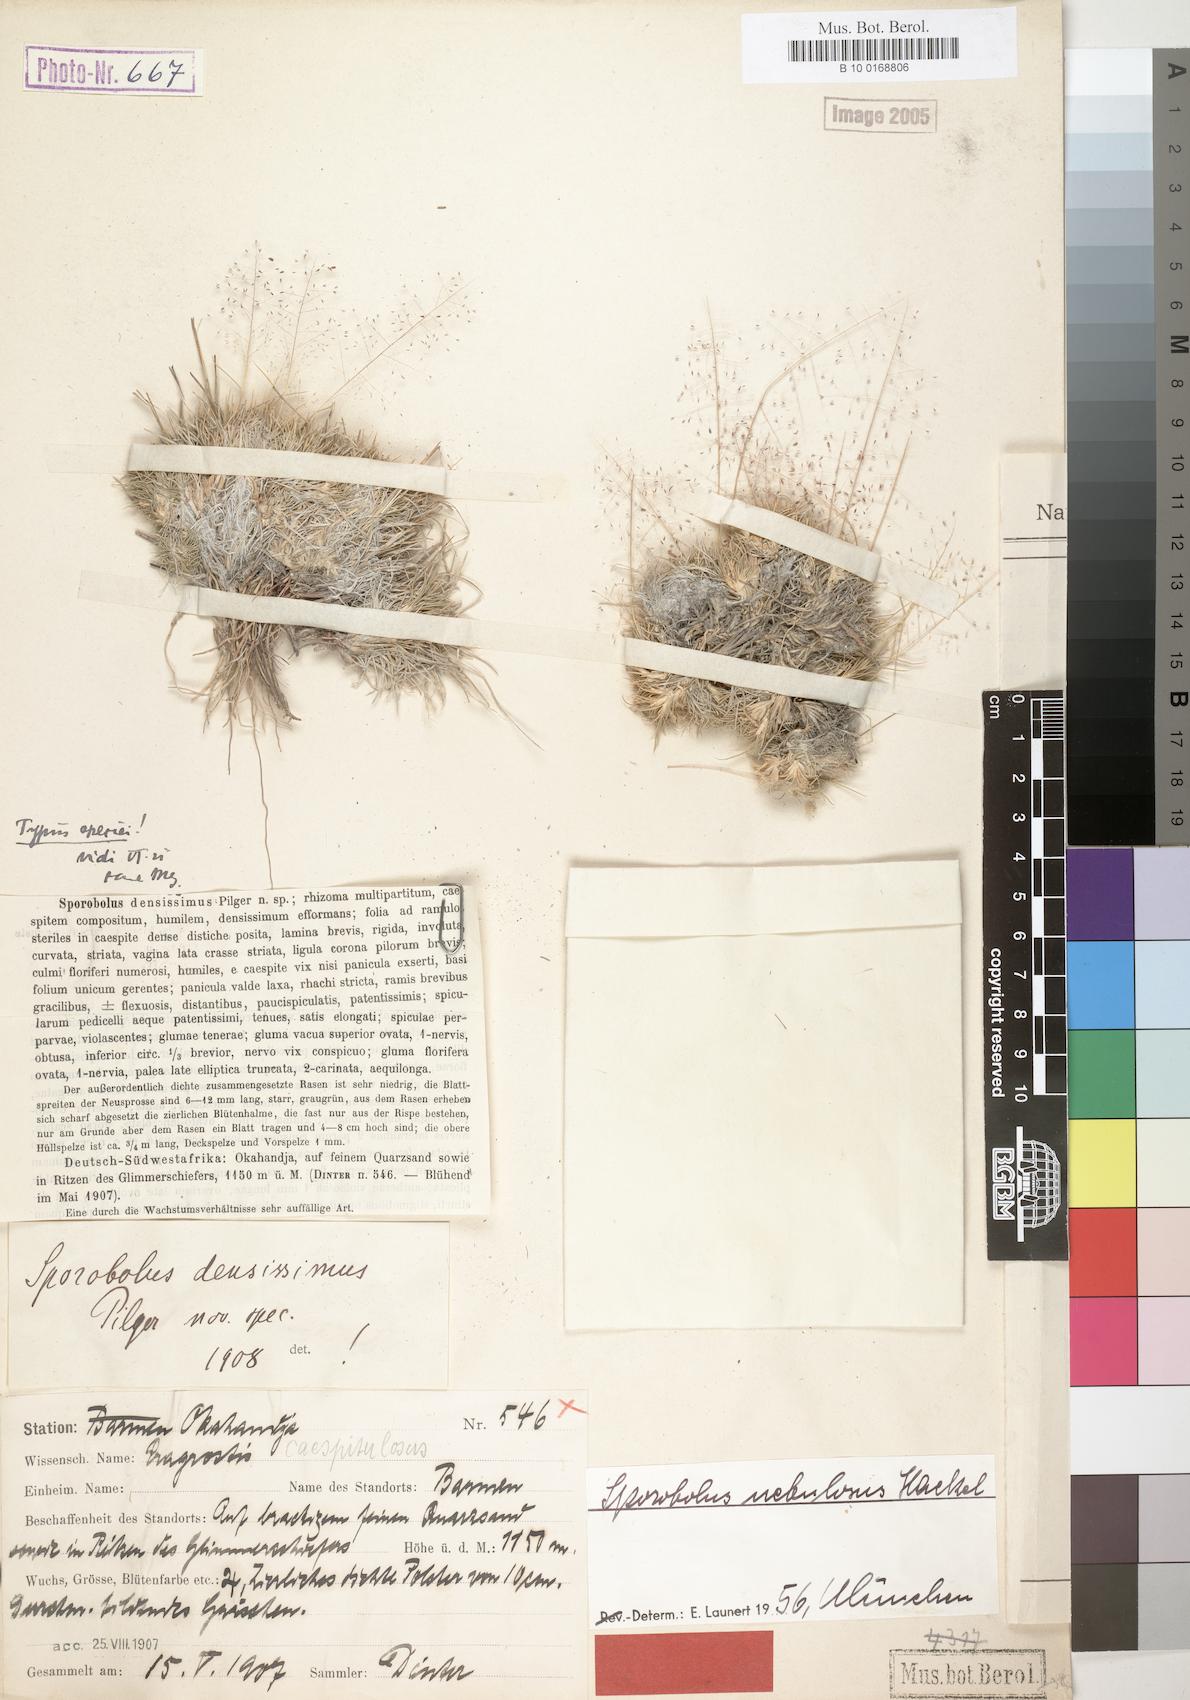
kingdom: Plantae
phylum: Tracheophyta
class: Liliopsida
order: Poales
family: Poaceae
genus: Sporobolus
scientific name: Sporobolus nebulosus
